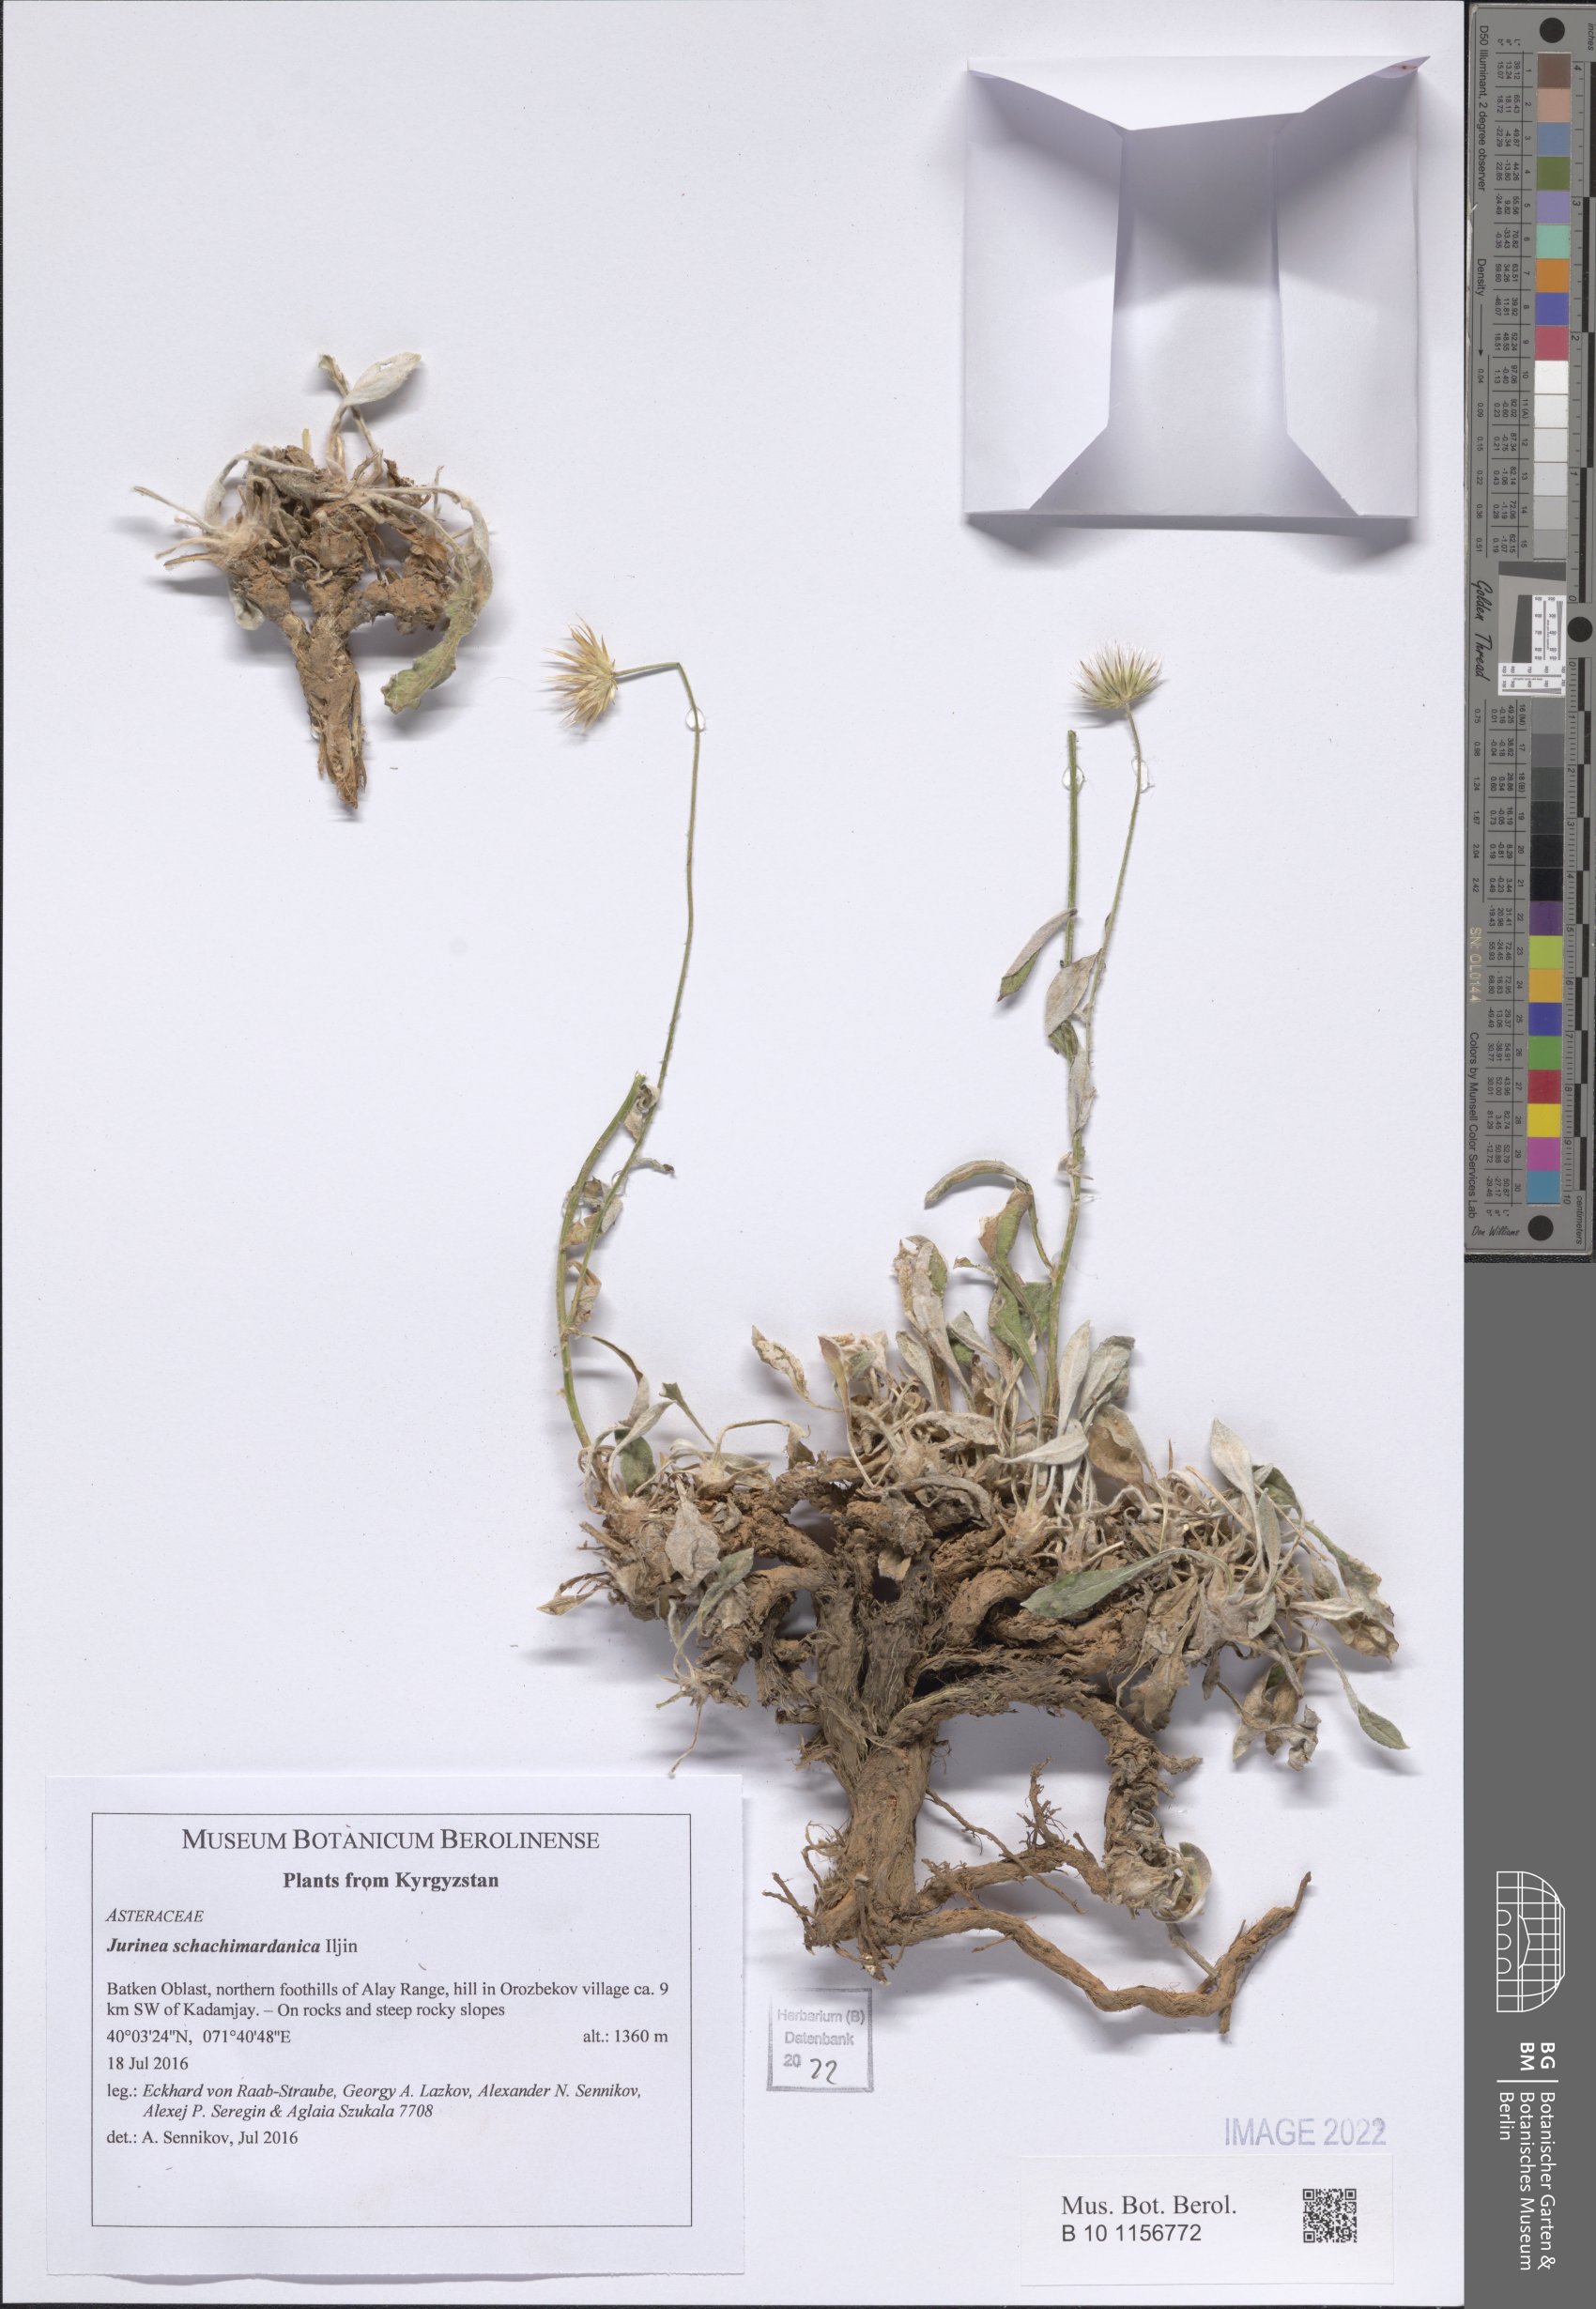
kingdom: Plantae
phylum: Tracheophyta
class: Magnoliopsida
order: Asterales
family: Asteraceae
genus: Jurinea
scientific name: Jurinea schachimardanica
